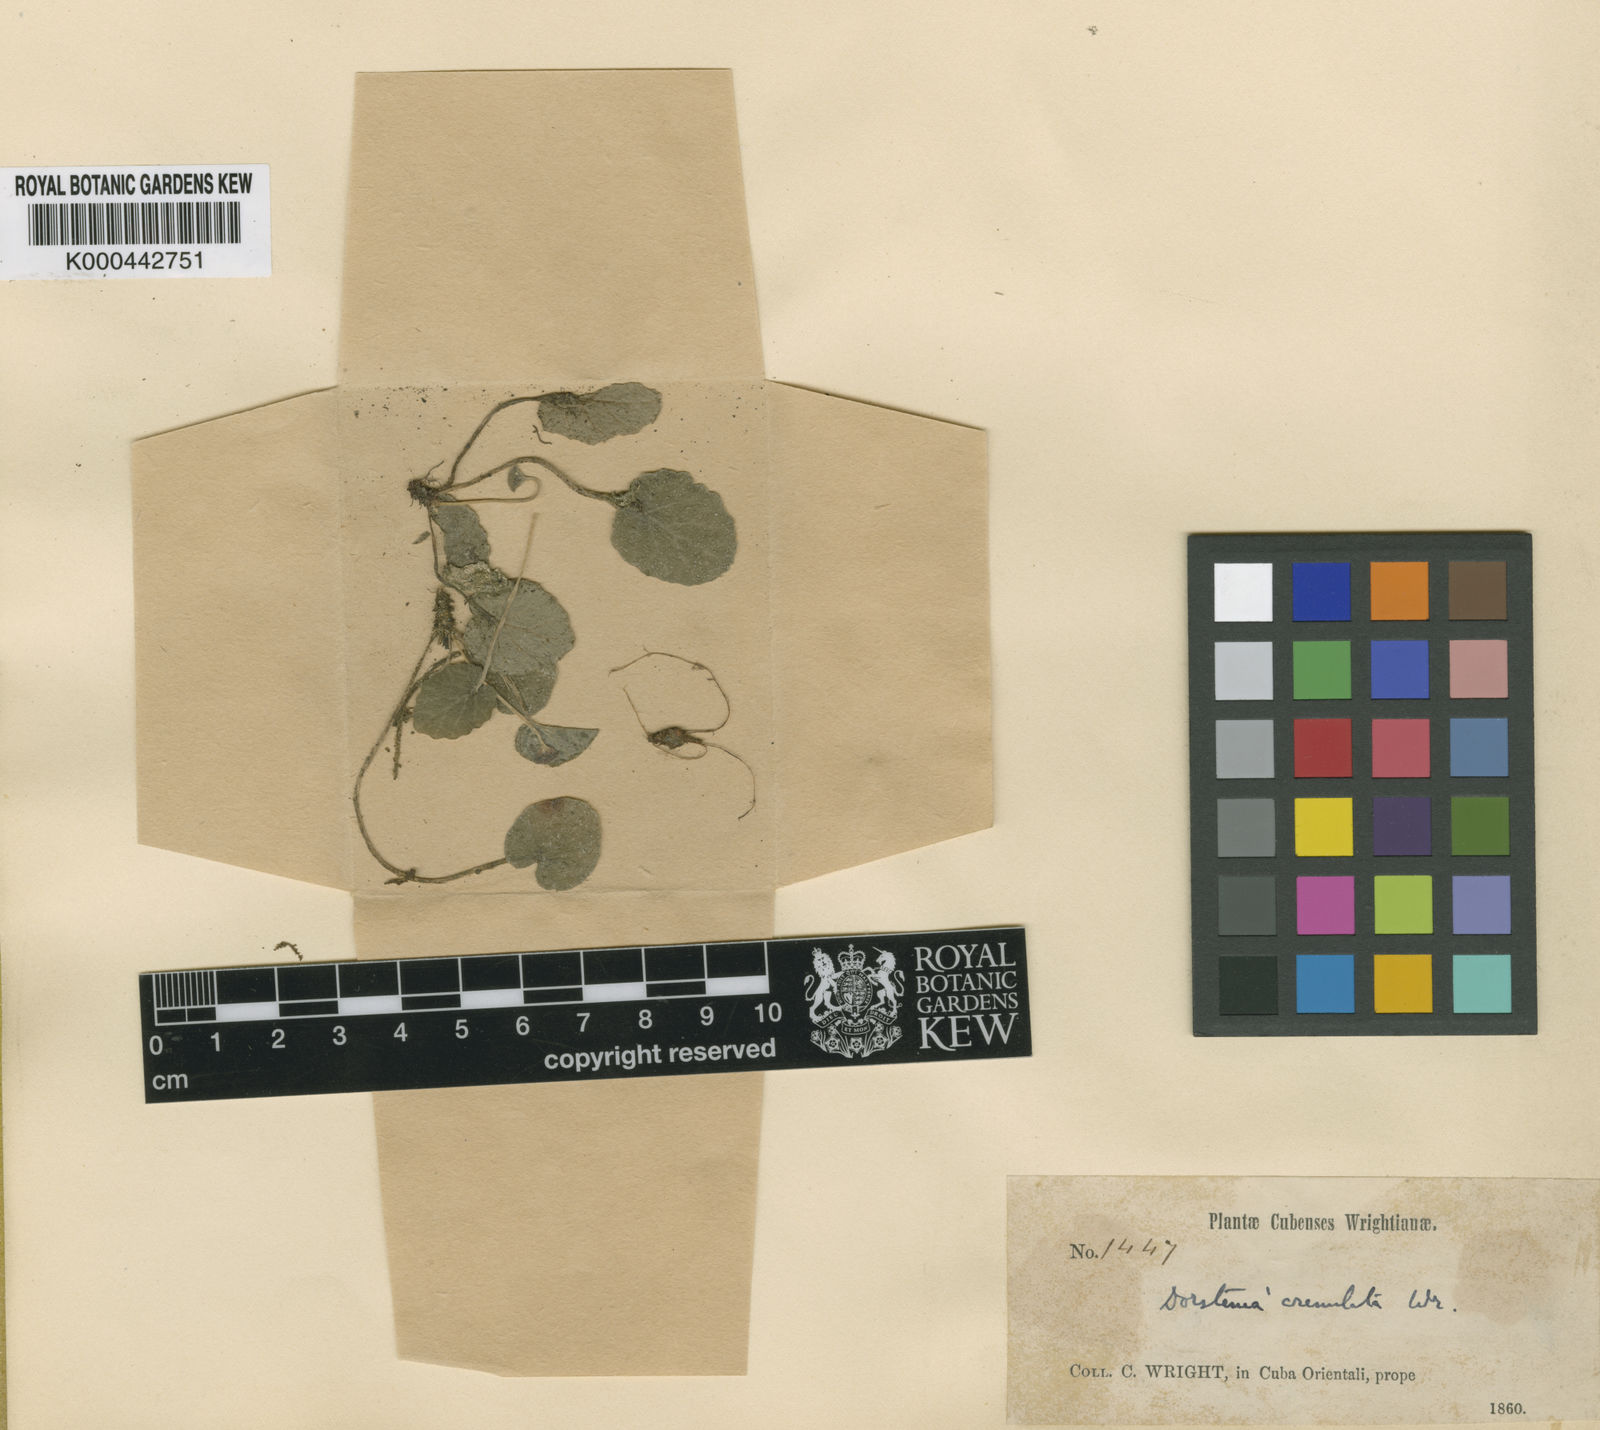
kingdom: Plantae
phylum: Tracheophyta
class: Magnoliopsida
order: Rosales
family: Moraceae
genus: Dorstenia
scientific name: Dorstenia crenulata
